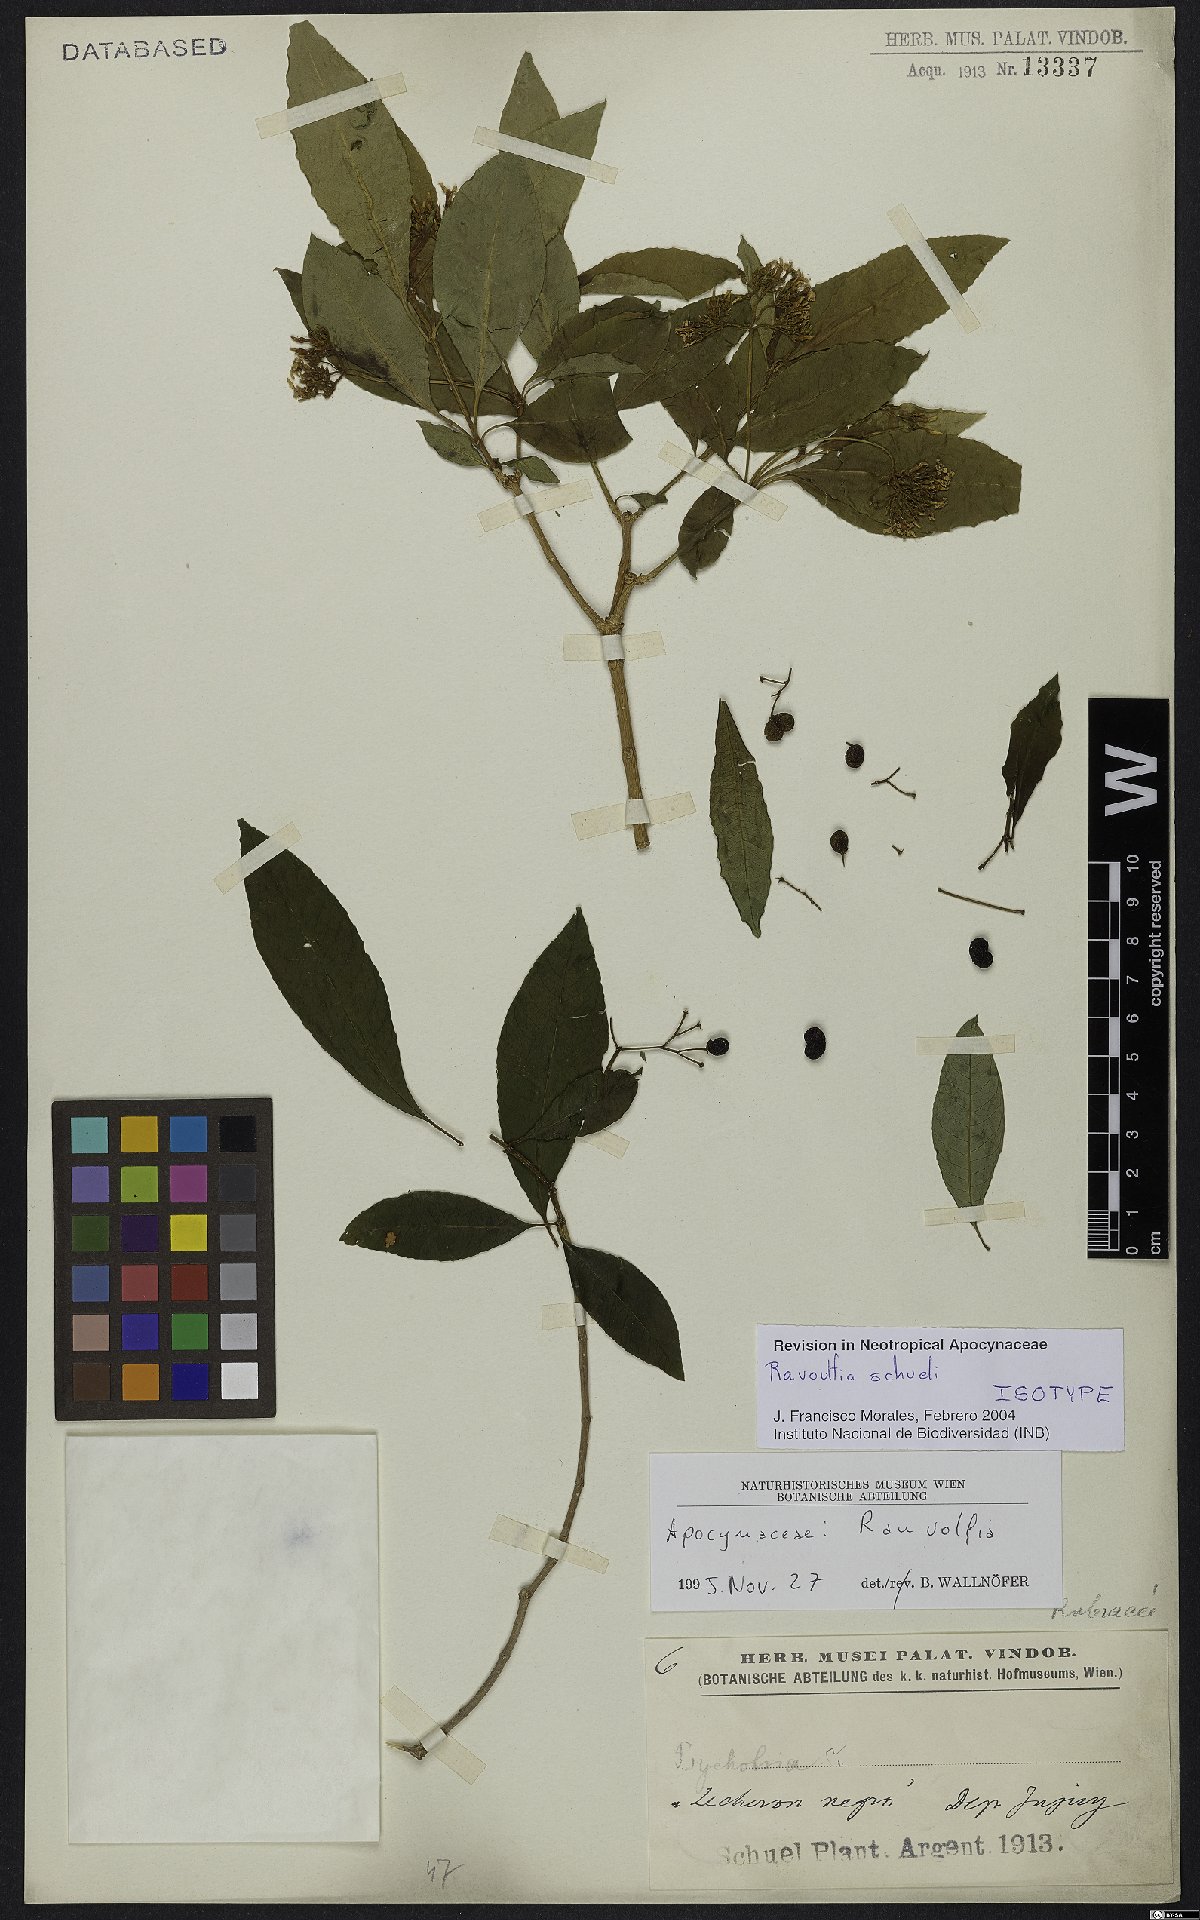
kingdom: Plantae
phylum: Tracheophyta
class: Magnoliopsida
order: Gentianales
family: Apocynaceae
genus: Rauvolfia
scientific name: Rauvolfia schuelii
